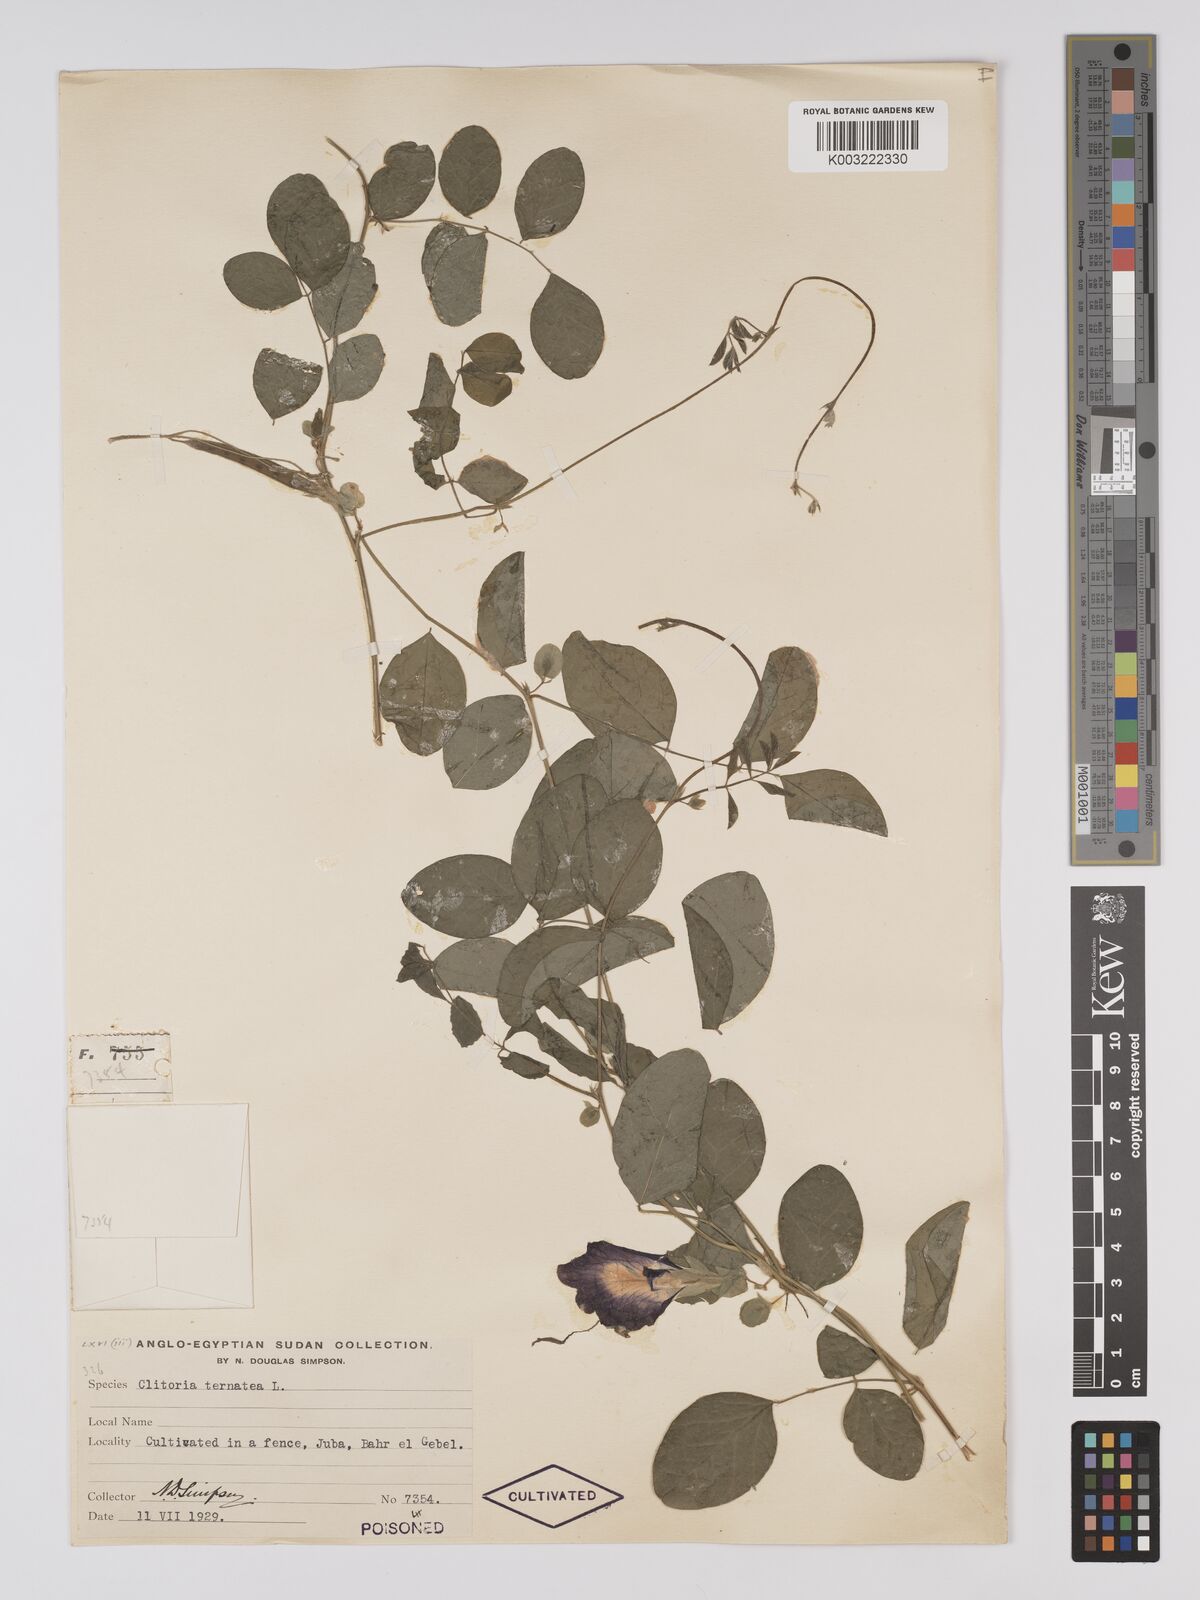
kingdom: Plantae
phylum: Tracheophyta
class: Magnoliopsida
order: Fabales
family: Fabaceae
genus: Clitoria
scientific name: Clitoria ternatea
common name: Asian pigeonwings
